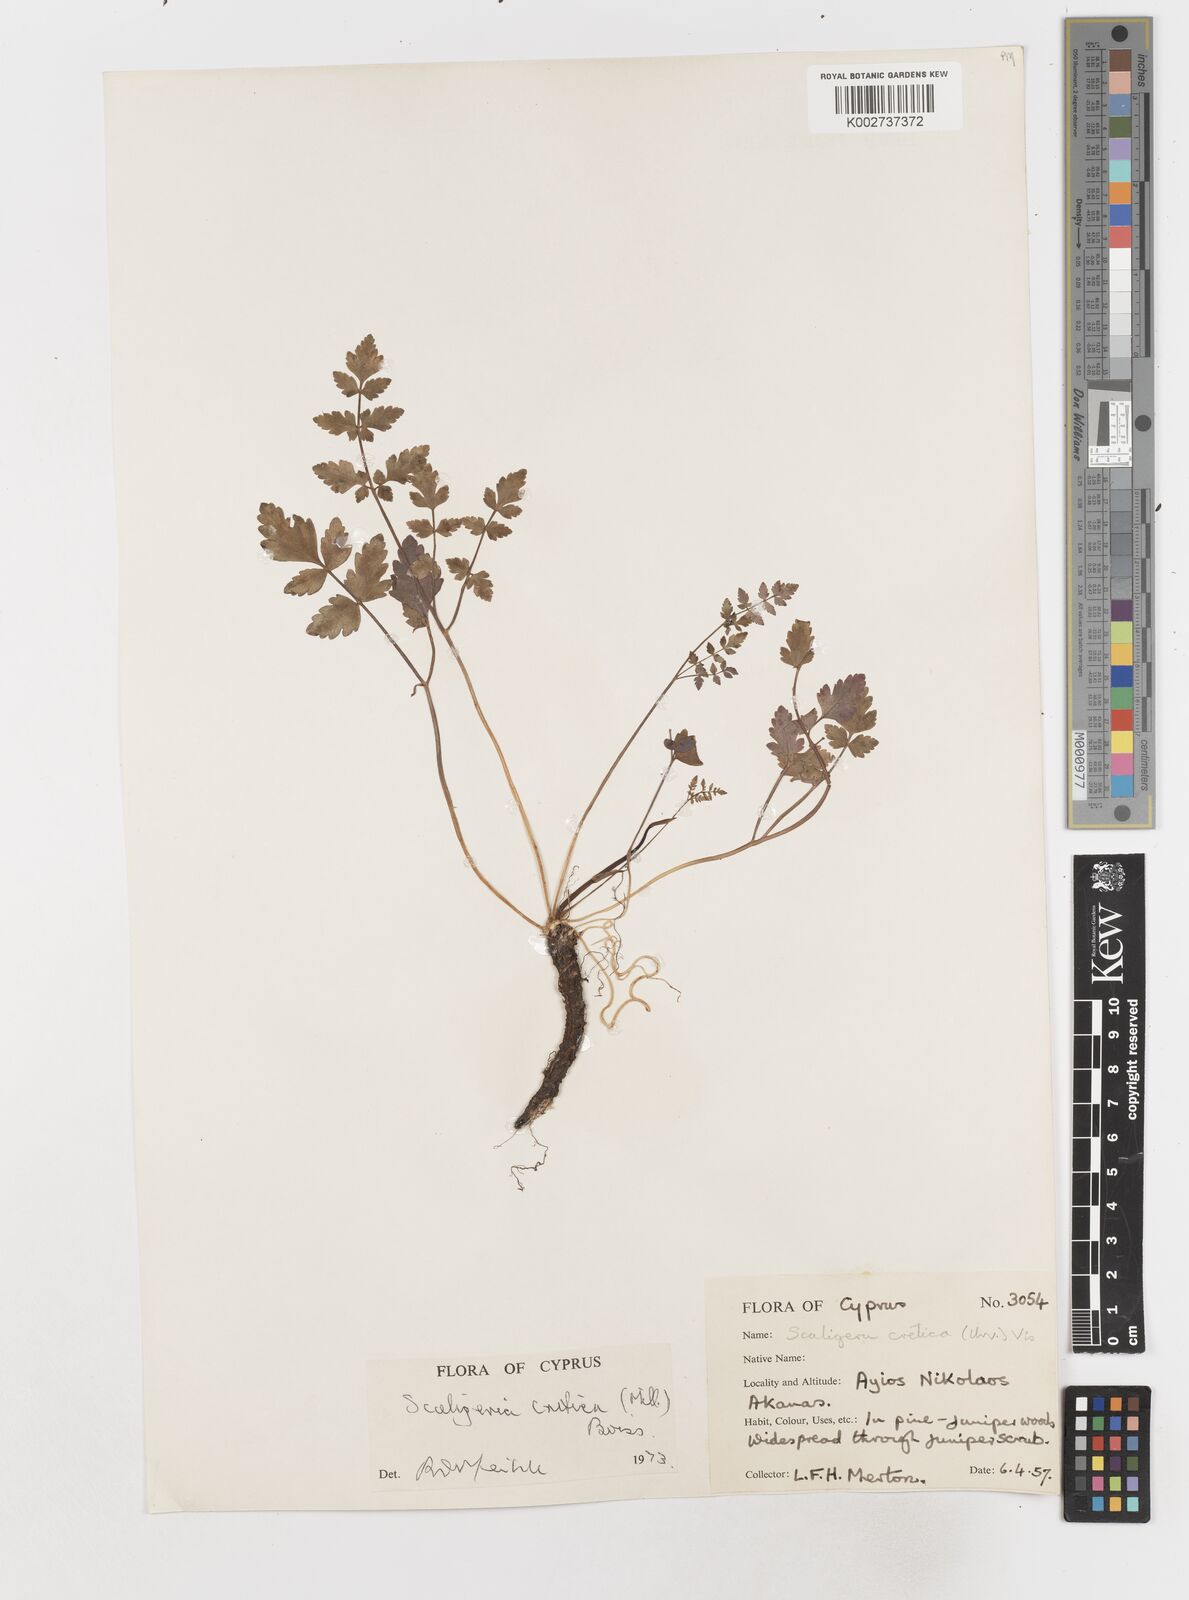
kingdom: Plantae
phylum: Tracheophyta
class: Magnoliopsida
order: Apiales
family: Apiaceae
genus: Scaligeria
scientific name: Scaligeria
